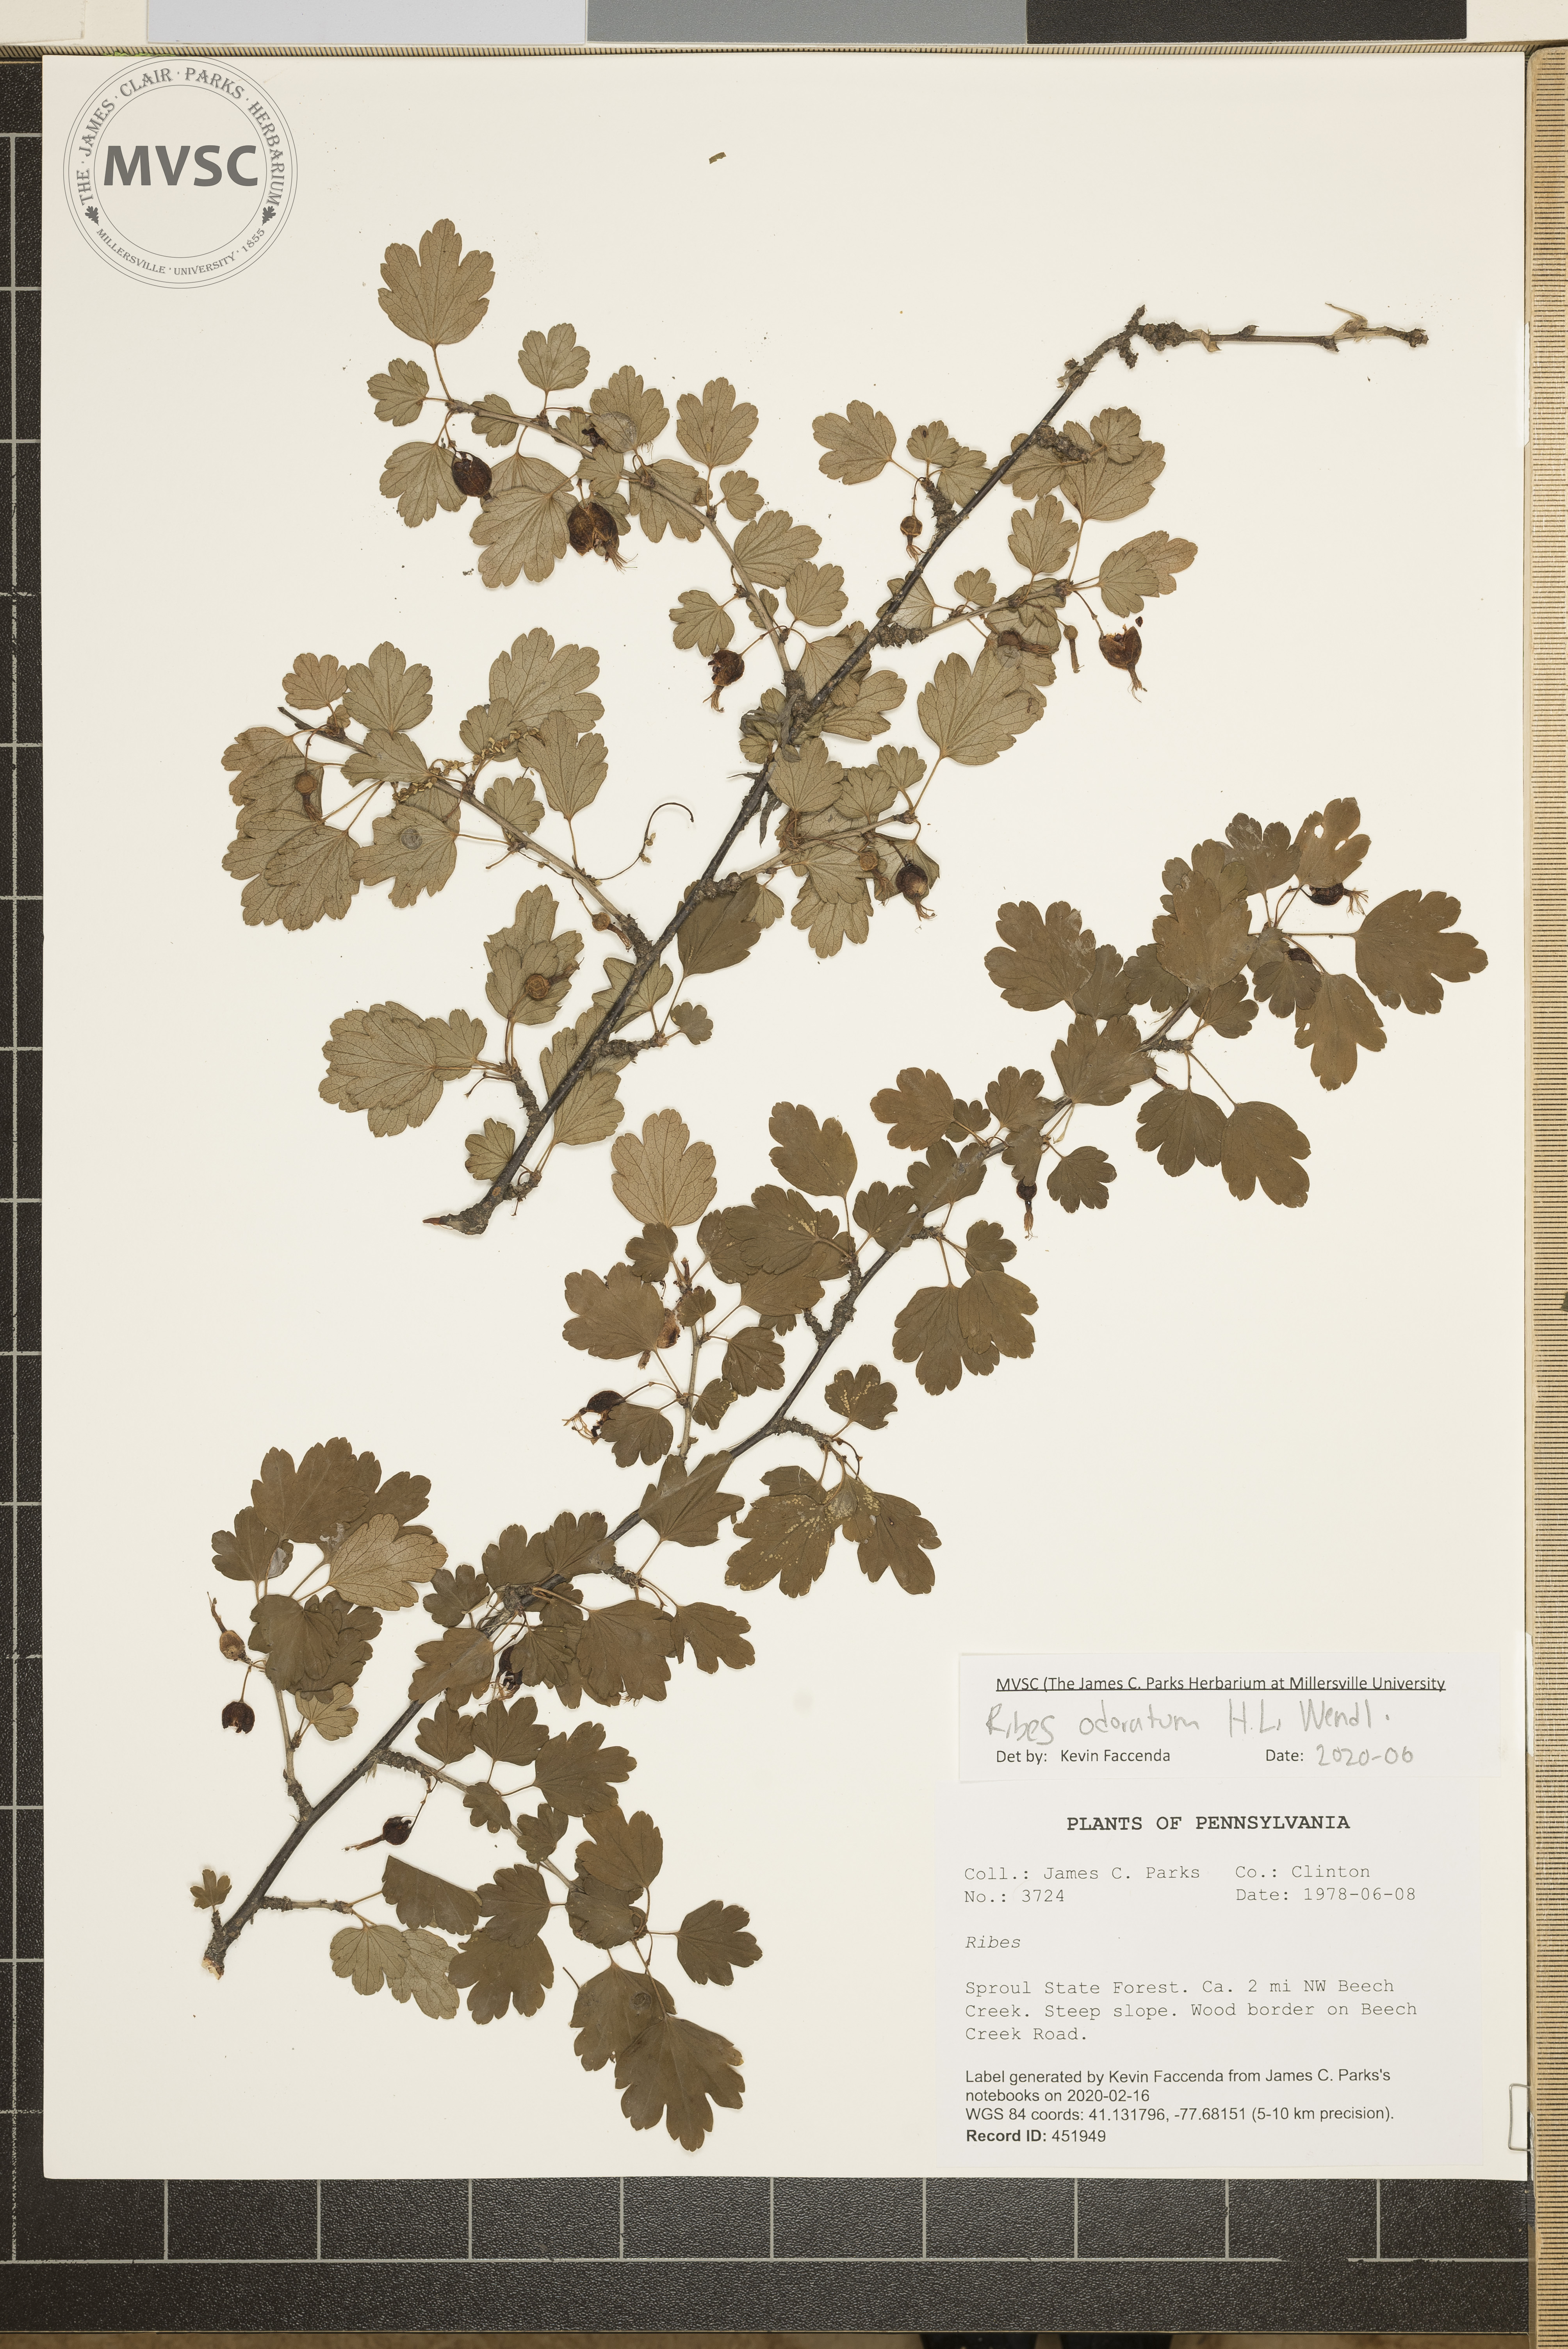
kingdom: Plantae
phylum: Tracheophyta
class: Magnoliopsida
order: Saxifragales
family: Grossulariaceae
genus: Ribes
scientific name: Ribes aureum
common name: Golden currant
